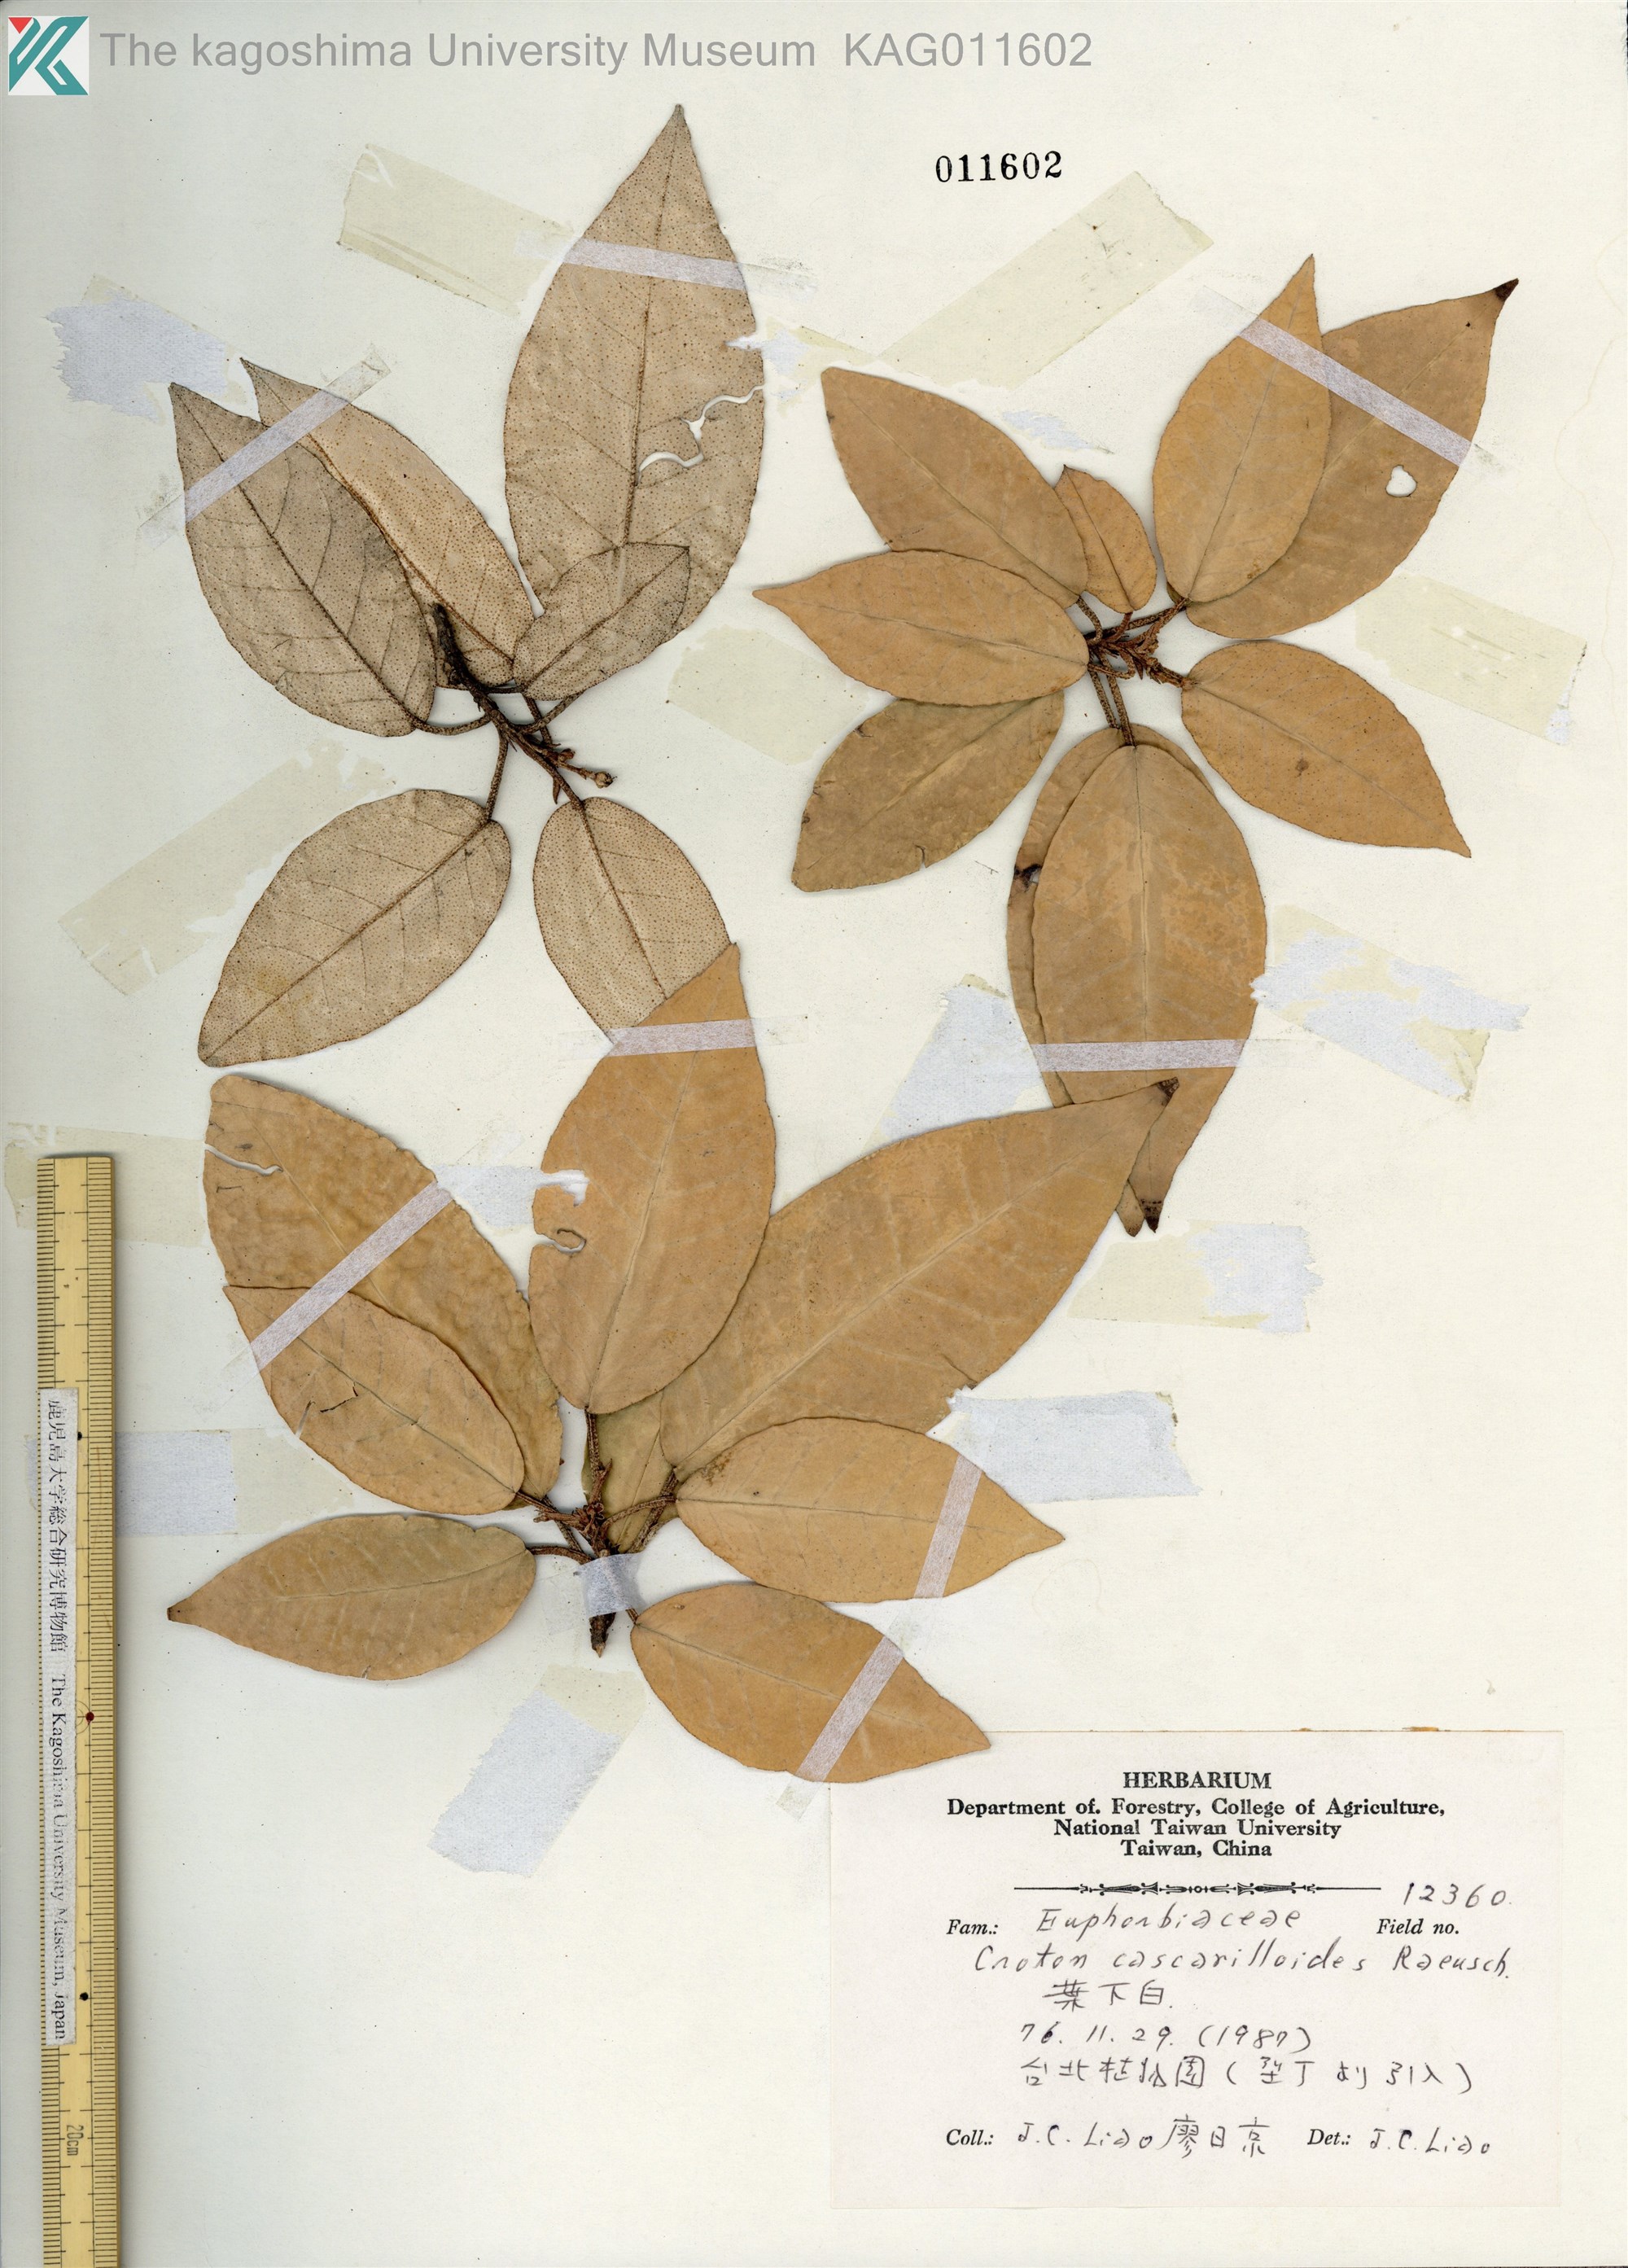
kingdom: Plantae
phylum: Tracheophyta
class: Magnoliopsida
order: Malpighiales
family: Euphorbiaceae
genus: Croton
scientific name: Croton cascarilloides
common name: グミモドキ
